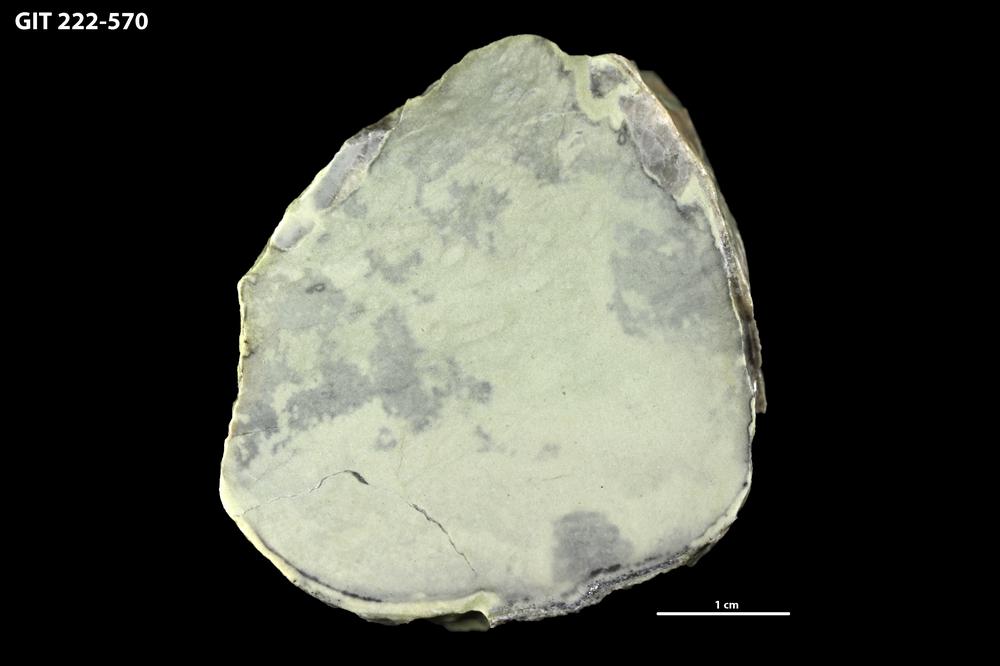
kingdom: Animalia
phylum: Mollusca
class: Cephalopoda
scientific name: Cephalopoda
